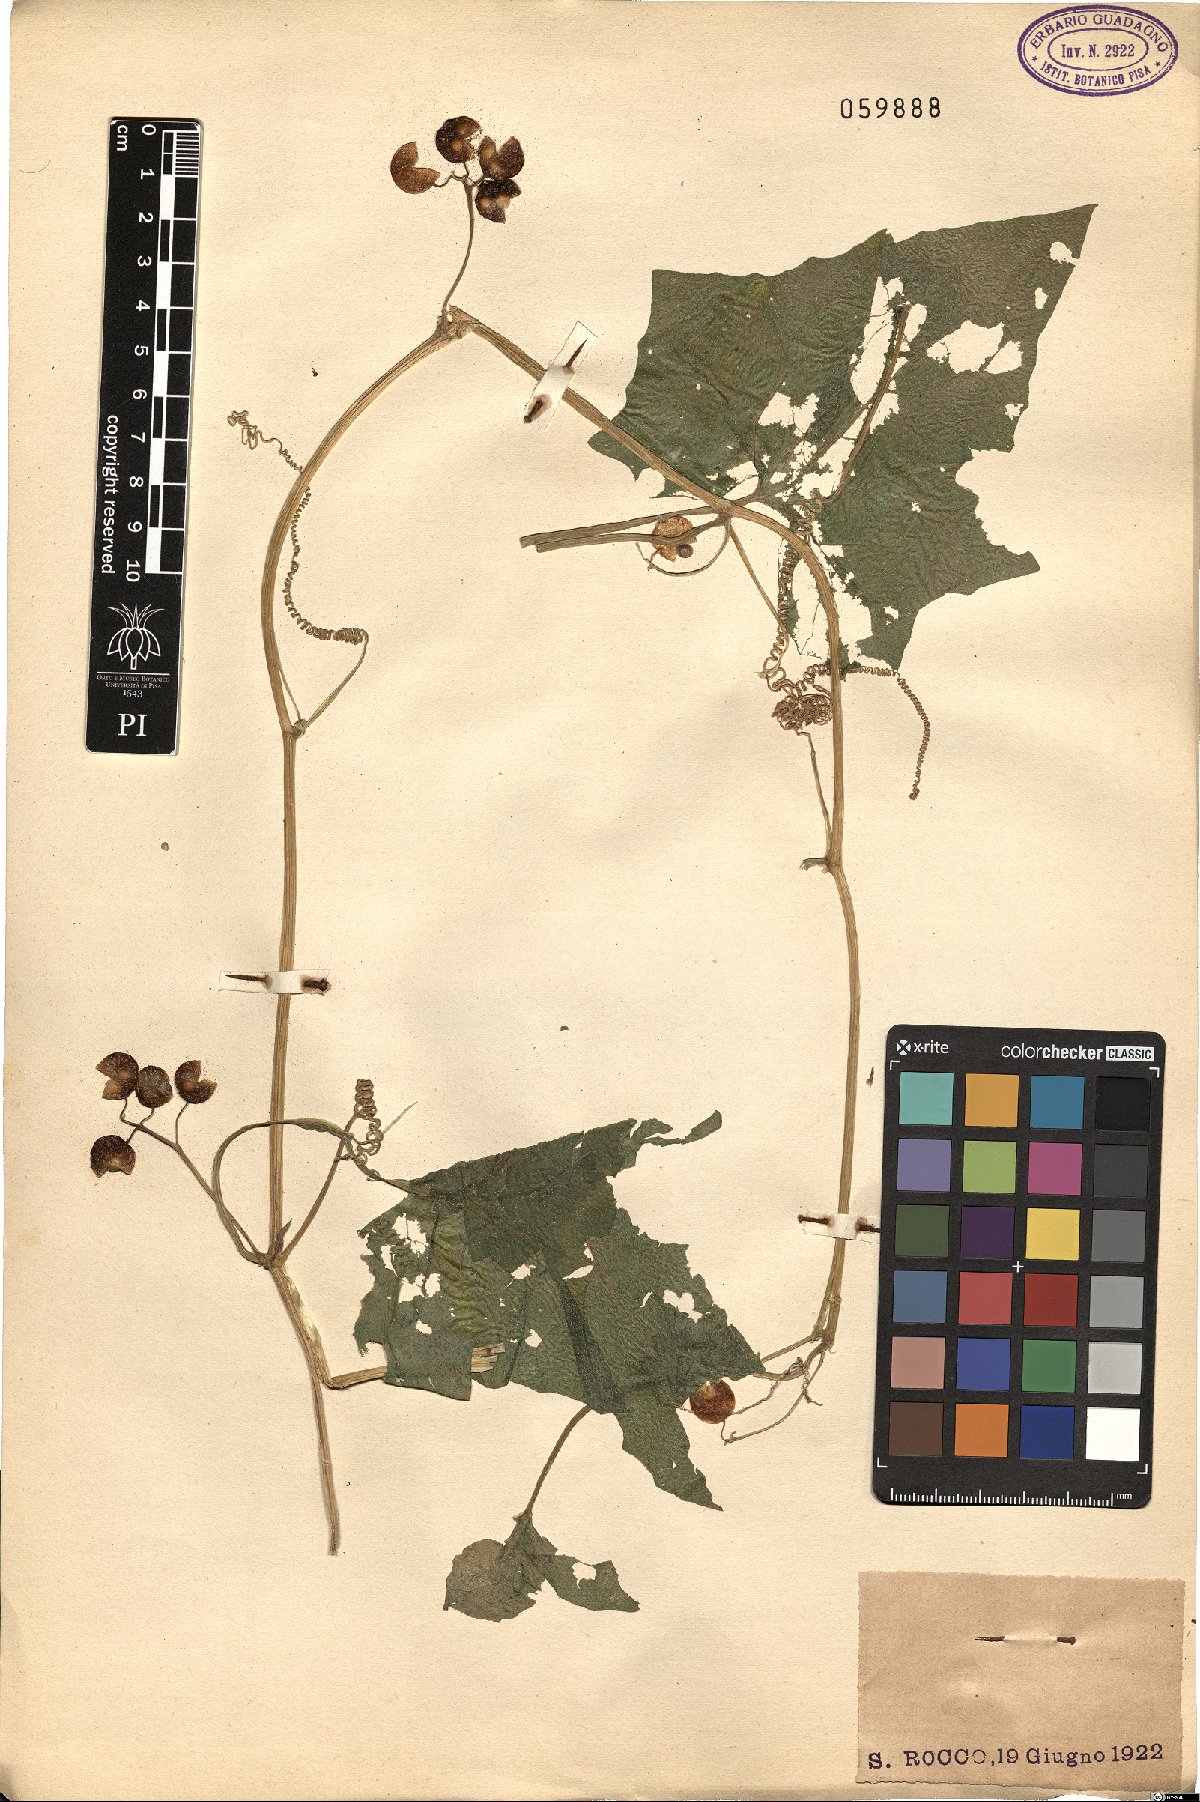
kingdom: Plantae
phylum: Tracheophyta
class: Magnoliopsida
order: Cucurbitales
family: Cucurbitaceae
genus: Bryonia
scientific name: Bryonia dioica
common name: White bryony
